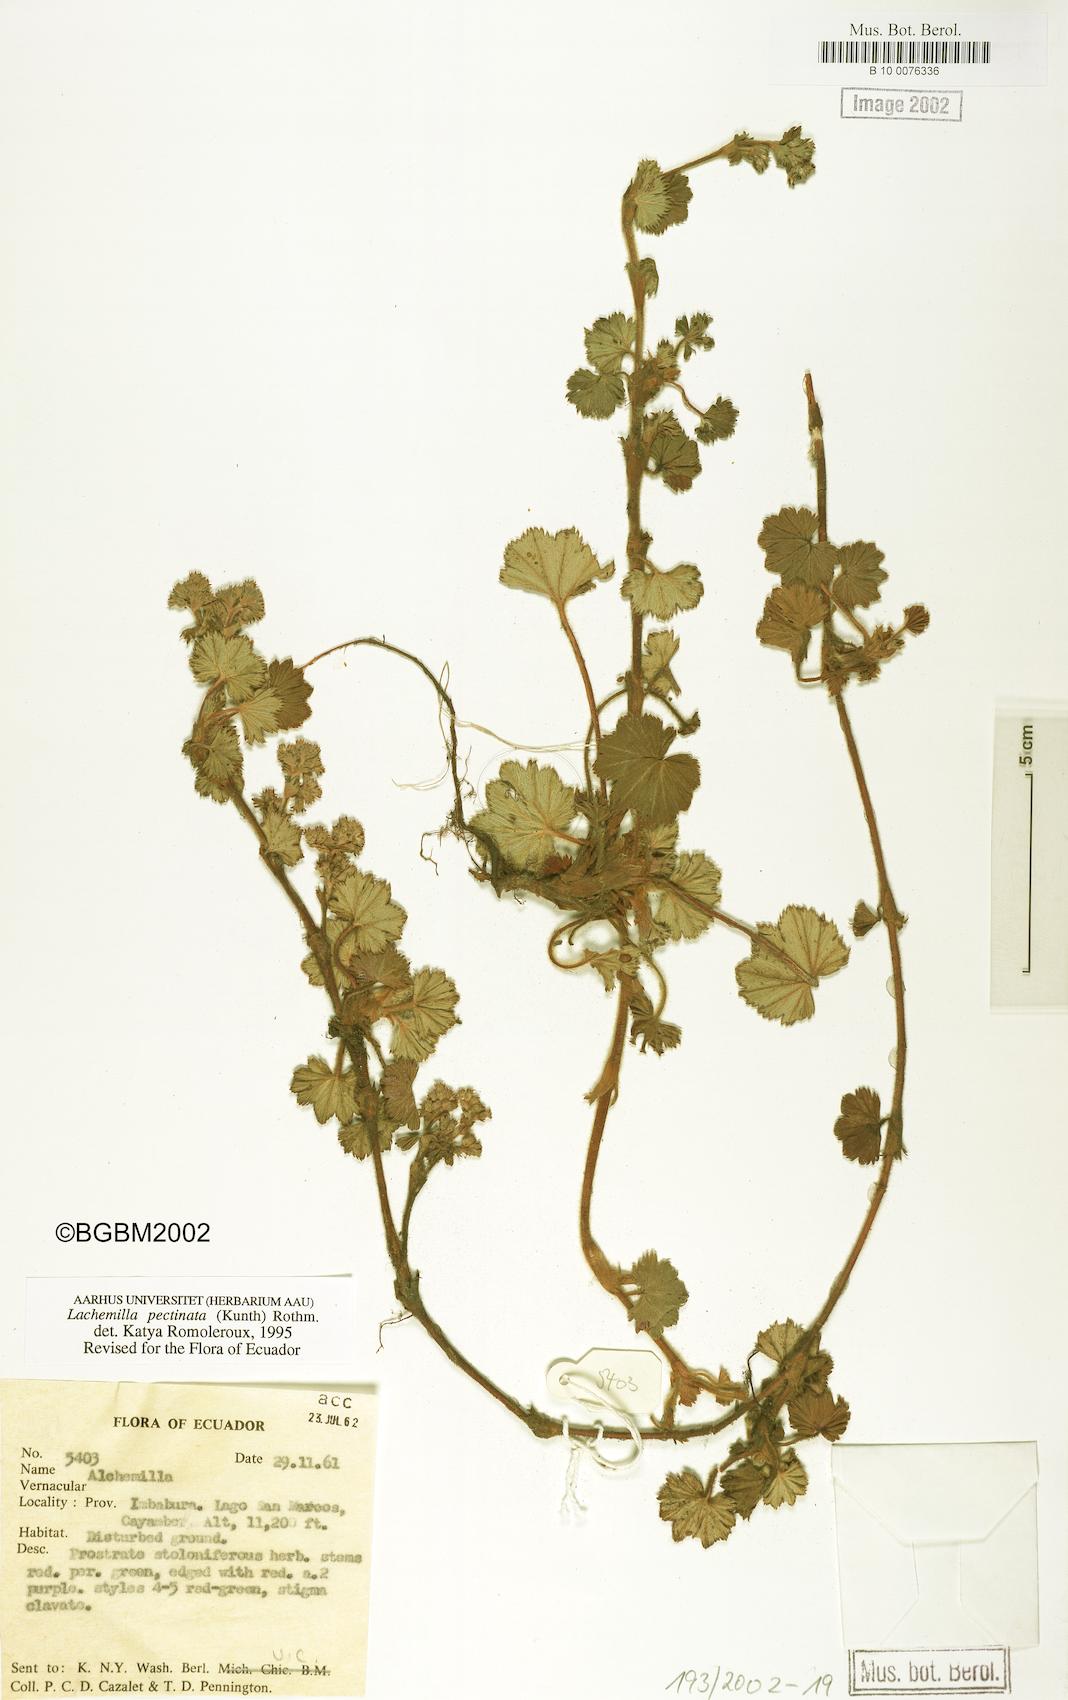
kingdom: Plantae
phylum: Tracheophyta
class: Magnoliopsida
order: Rosales
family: Rosaceae
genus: Lachemilla
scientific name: Lachemilla pectinata
